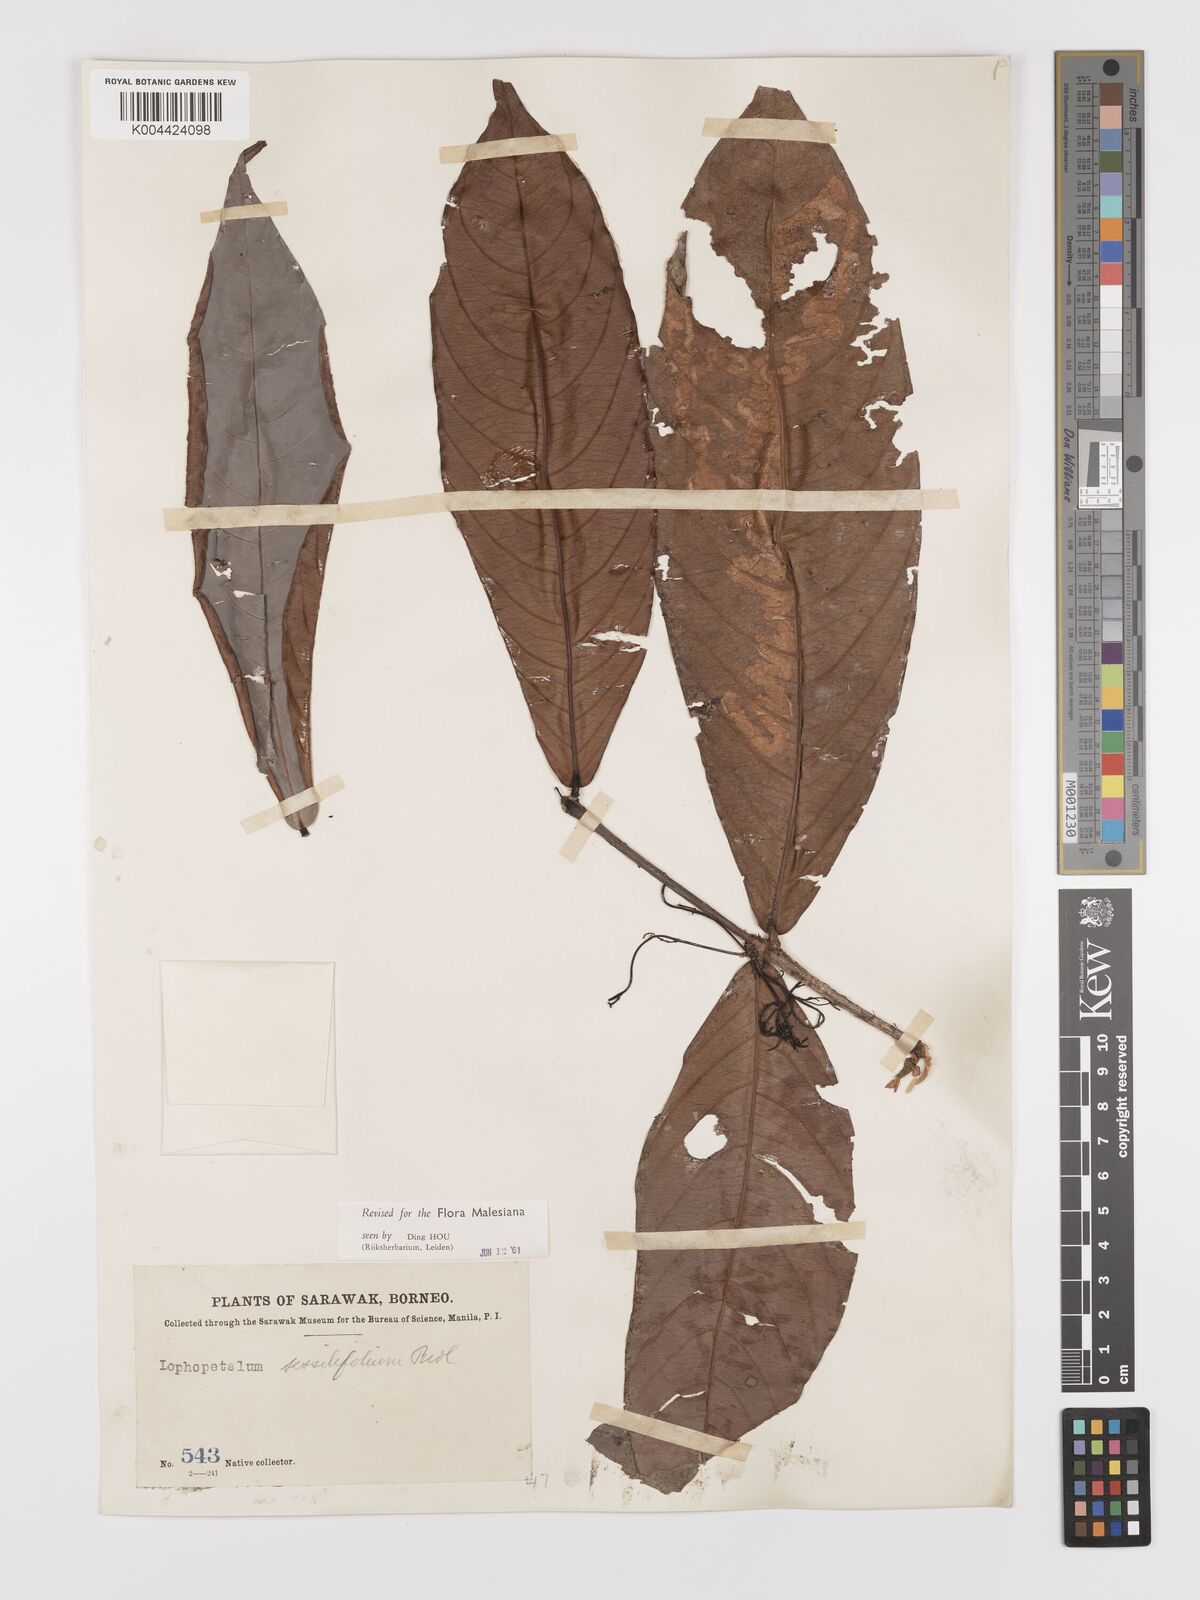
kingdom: Plantae
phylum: Tracheophyta
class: Magnoliopsida
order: Celastrales
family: Celastraceae
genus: Lophopetalum
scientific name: Lophopetalum sessilifolium
